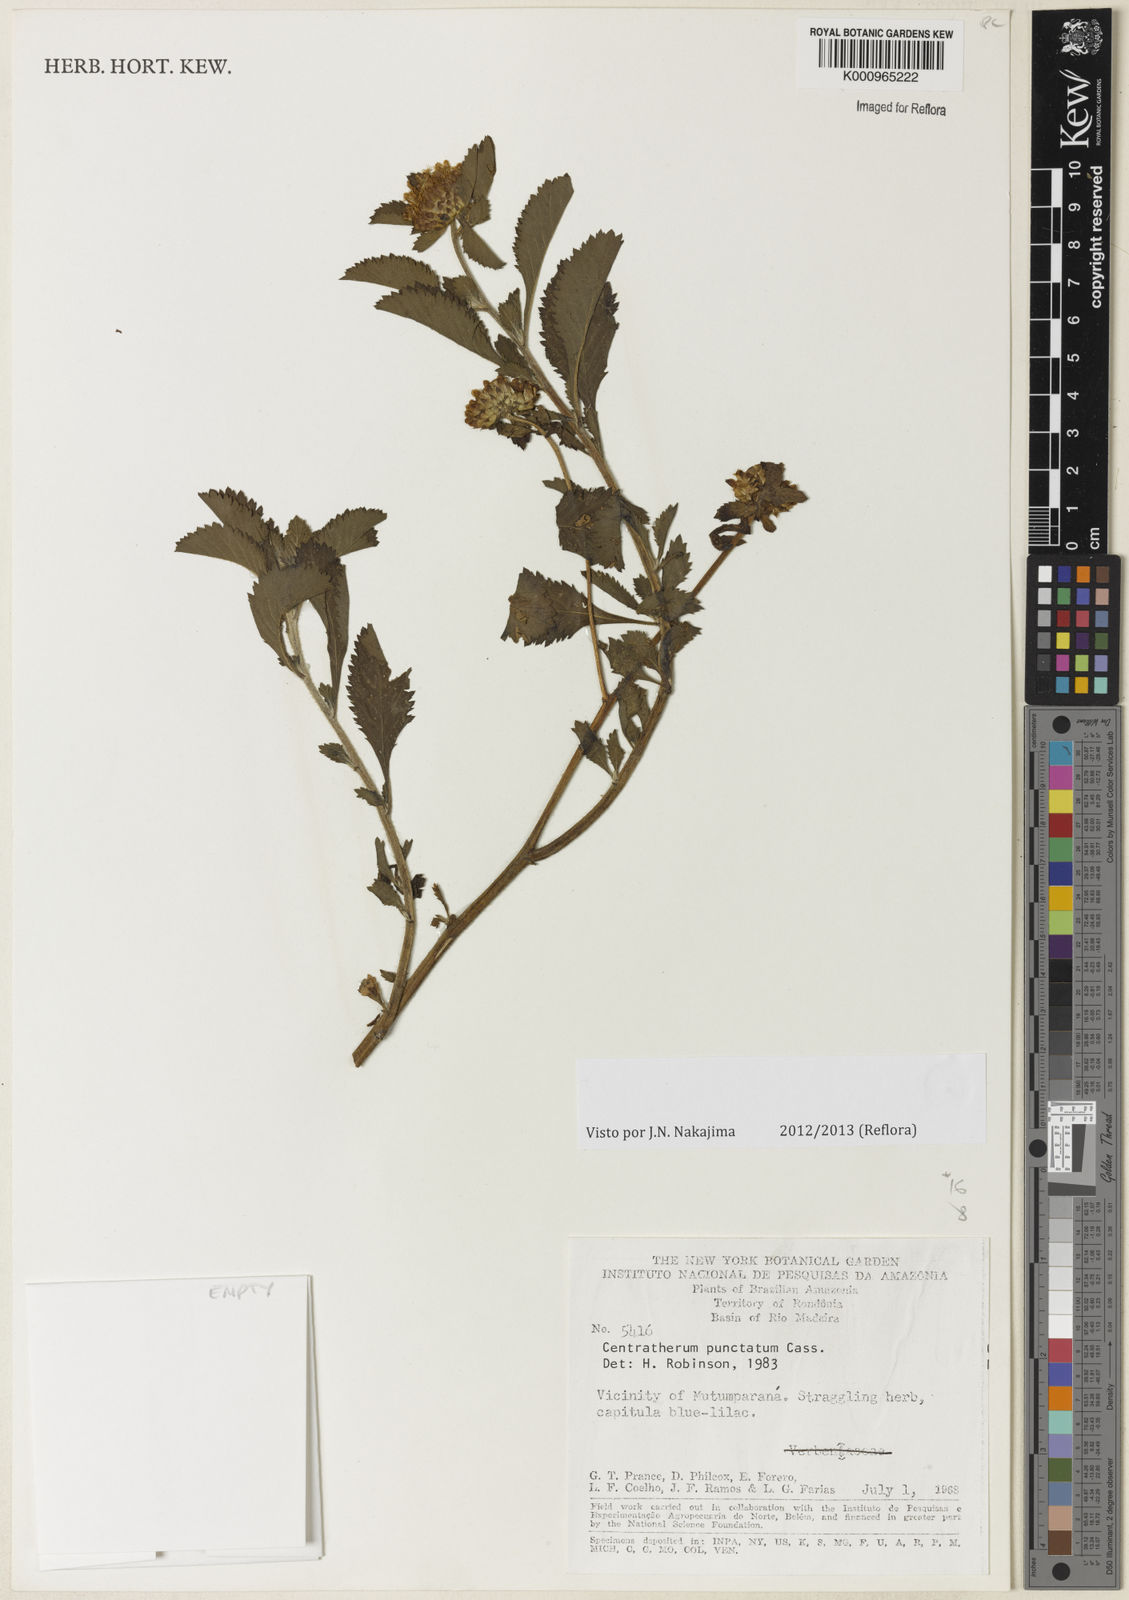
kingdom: Plantae
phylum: Tracheophyta
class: Magnoliopsida
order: Asterales
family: Asteraceae
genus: Centratherum
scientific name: Centratherum punctatum
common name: Larkdaisy
